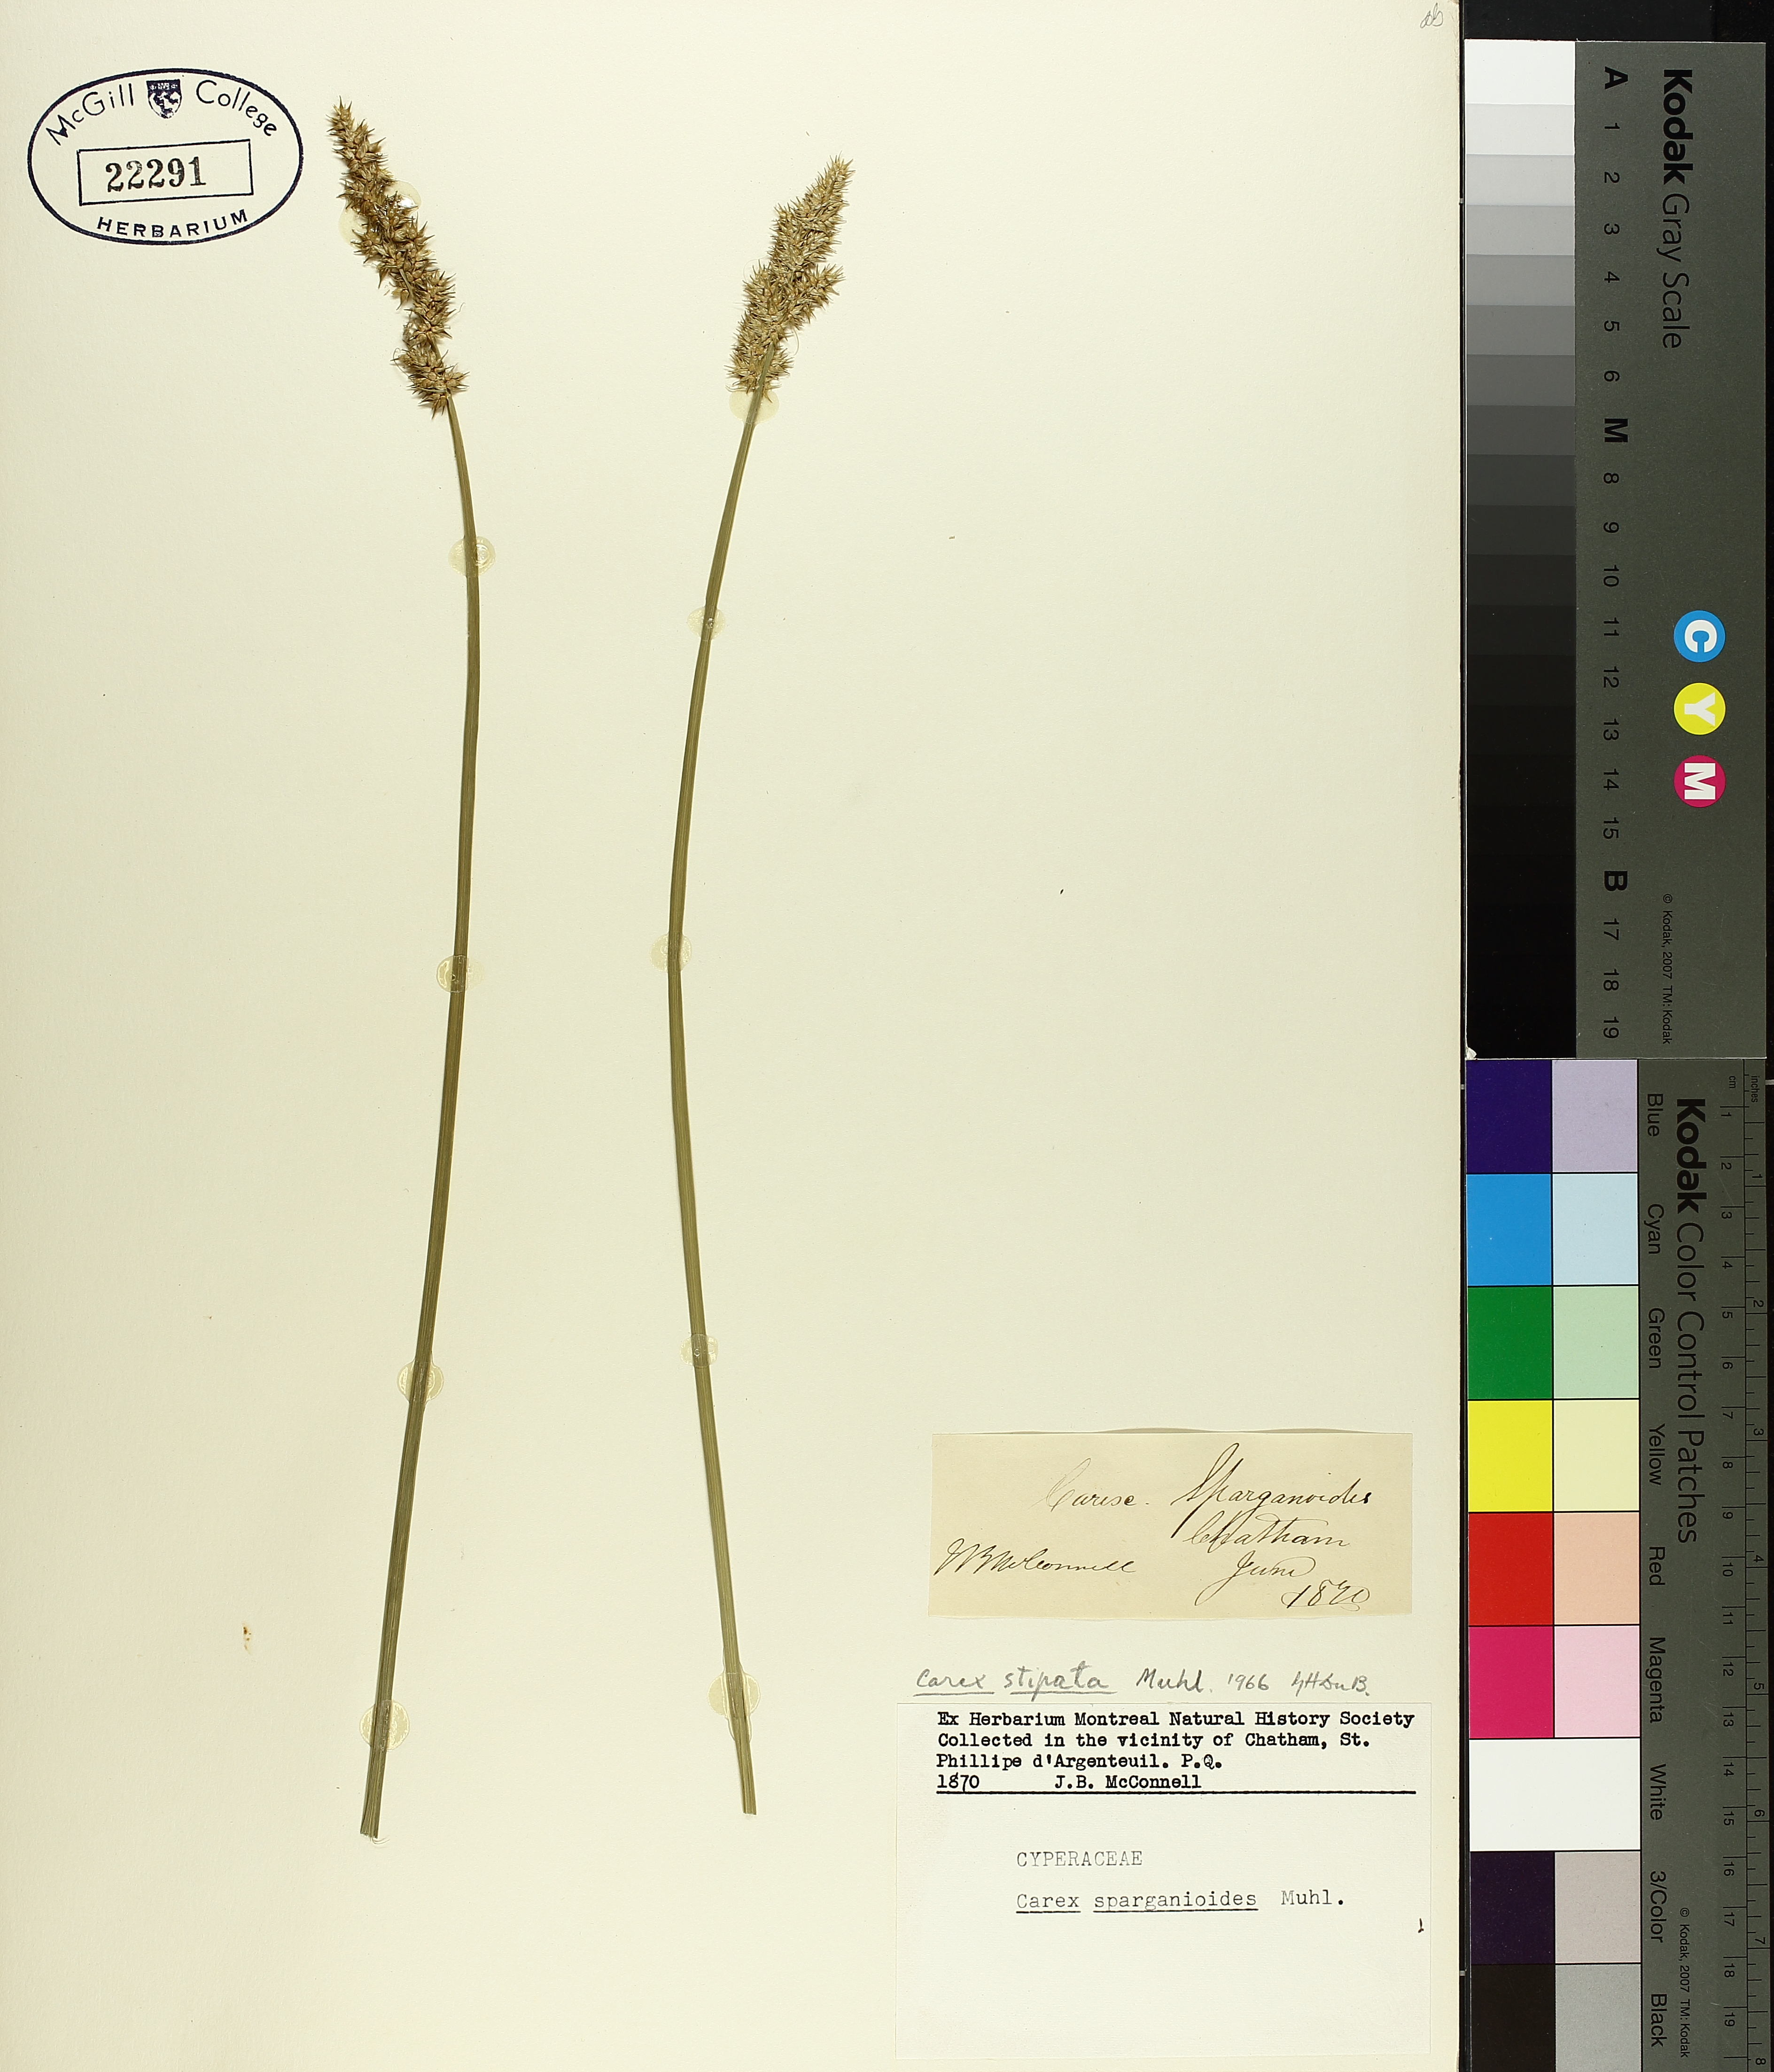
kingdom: Plantae
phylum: Tracheophyta
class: Liliopsida
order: Poales
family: Cyperaceae
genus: Carex
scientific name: Carex stipata
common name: Awl-fruited sedge
